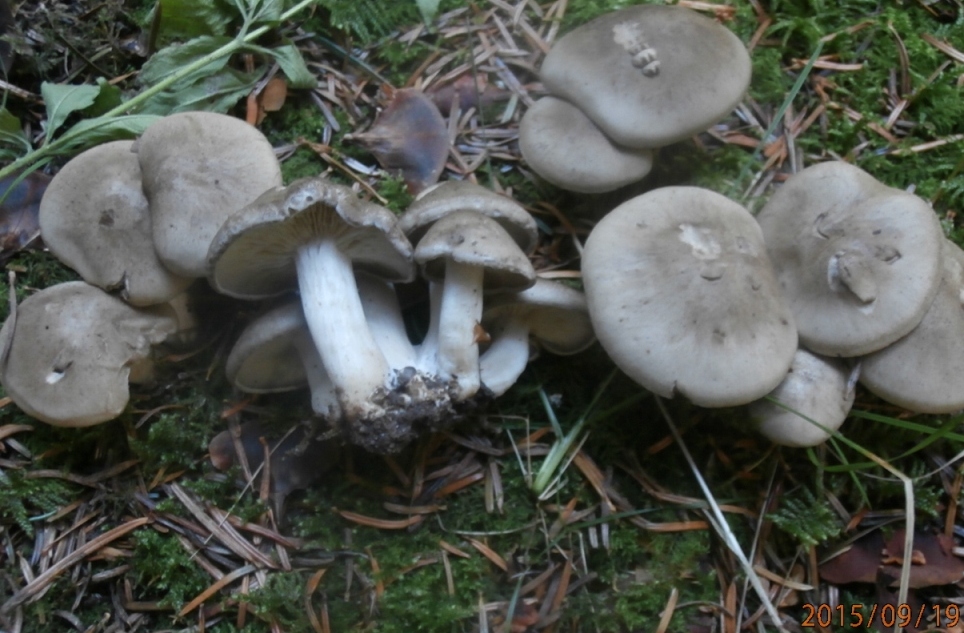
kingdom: Fungi
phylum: Basidiomycota
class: Agaricomycetes
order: Agaricales
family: Lyophyllaceae
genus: Lyophyllum
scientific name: Lyophyllum decastes
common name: røggrå gråblad
